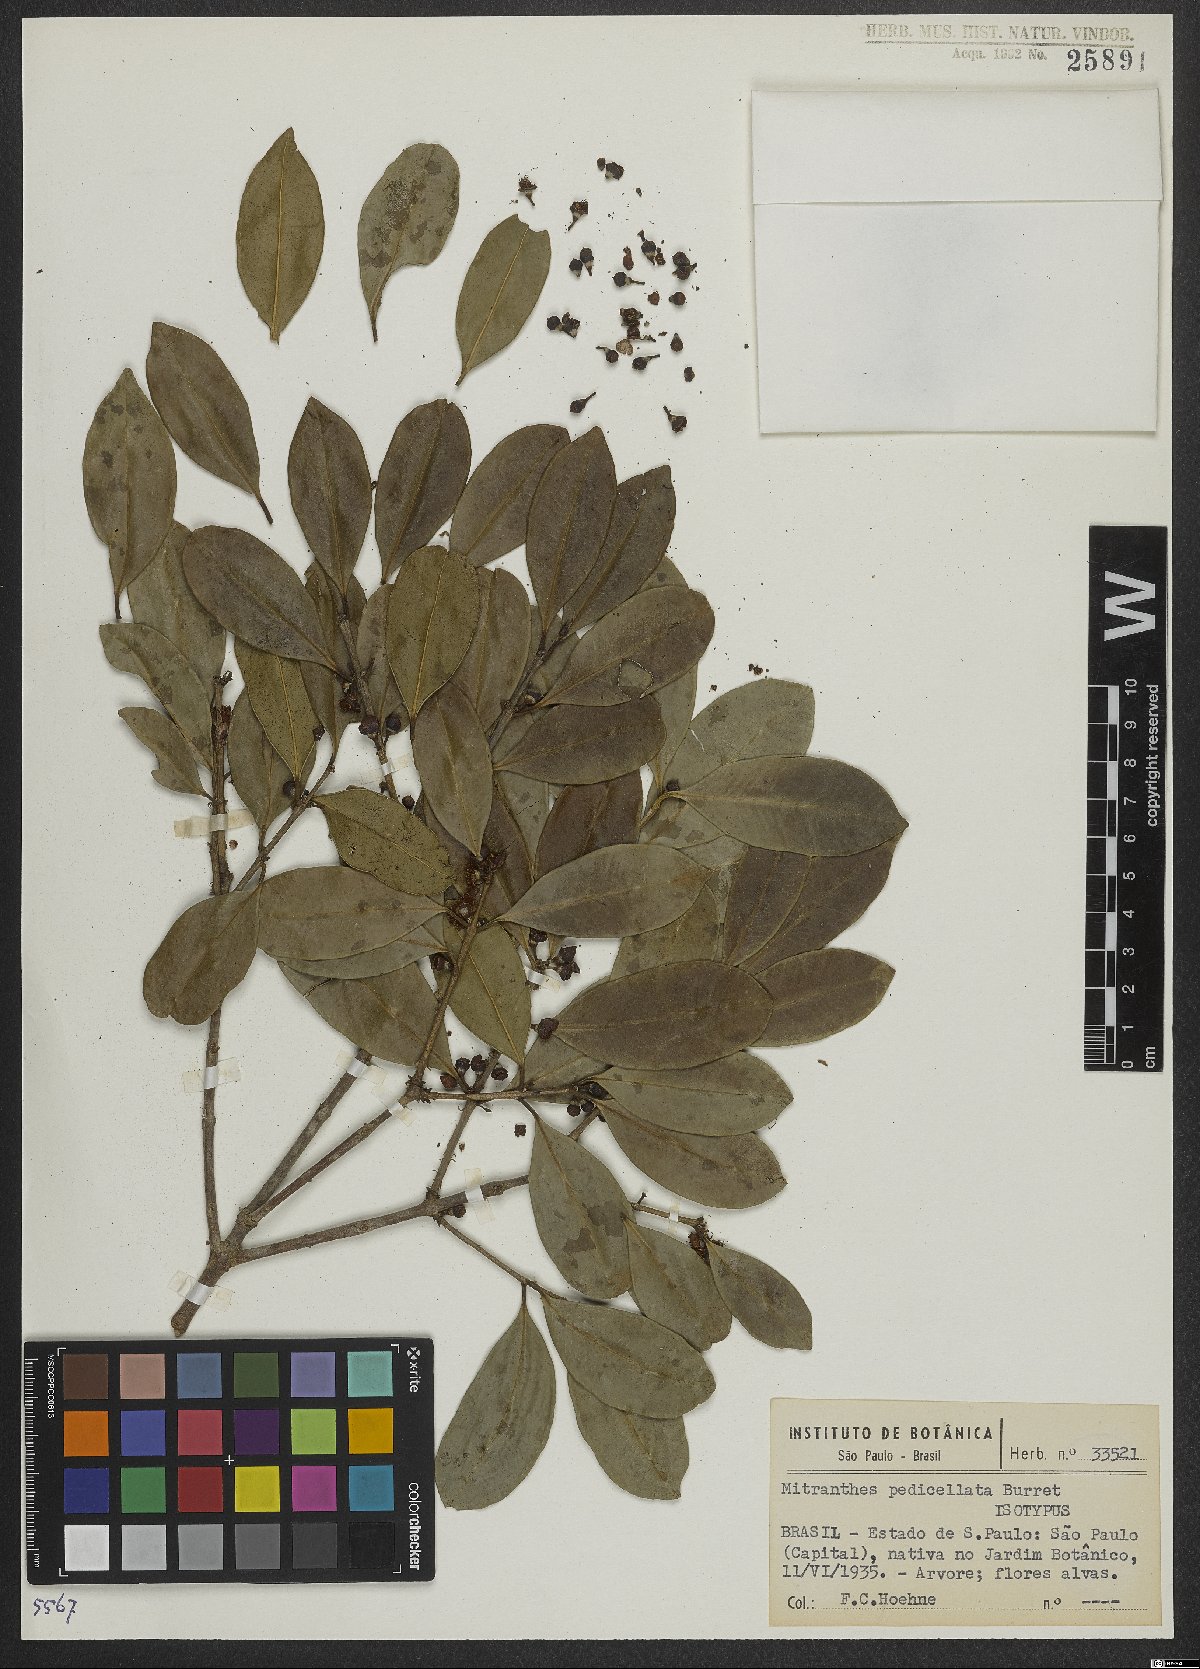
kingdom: Plantae
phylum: Tracheophyta
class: Magnoliopsida
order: Myrtales
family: Myrtaceae
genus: Neomitranthes
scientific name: Neomitranthes pedicellata
